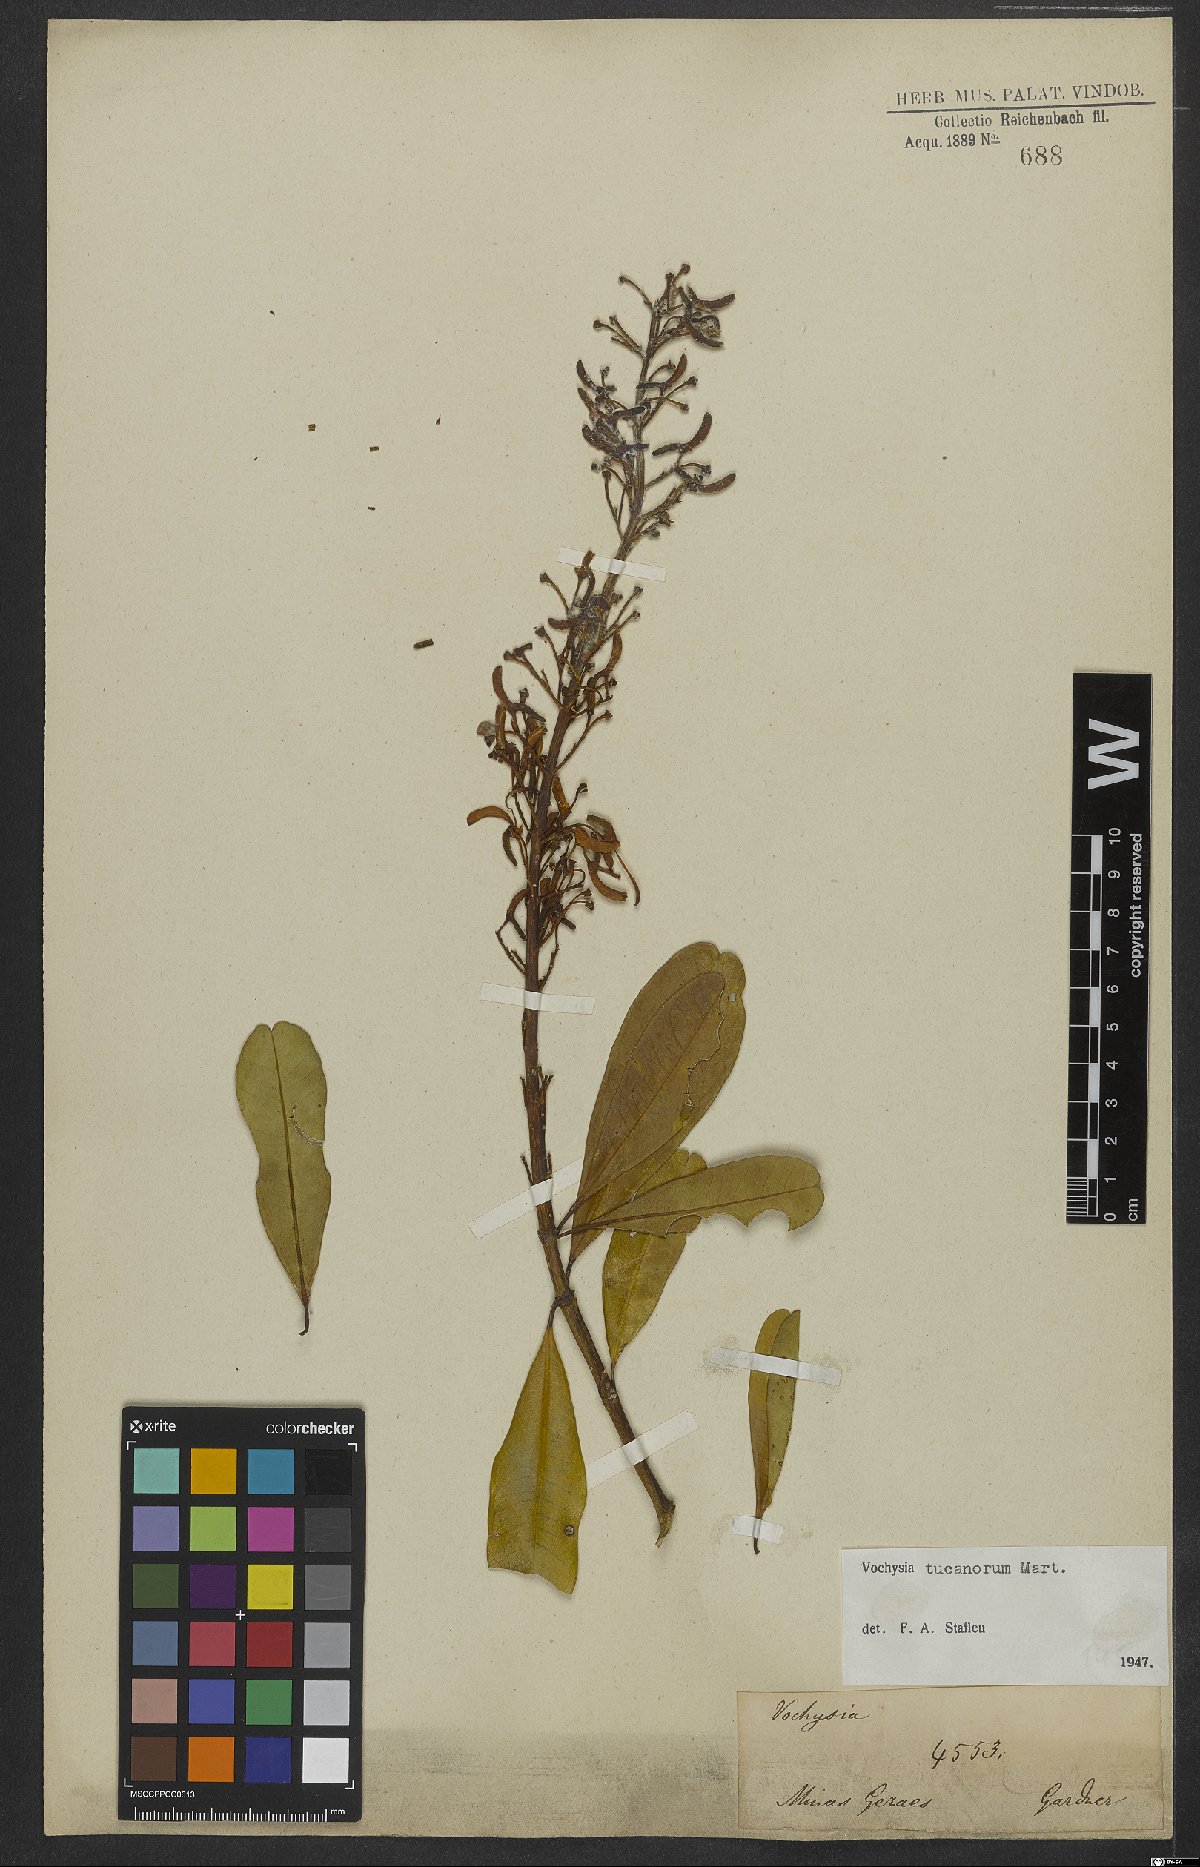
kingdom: Plantae
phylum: Tracheophyta
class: Magnoliopsida
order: Myrtales
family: Vochysiaceae
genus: Vochysia
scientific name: Vochysia tucanorum
